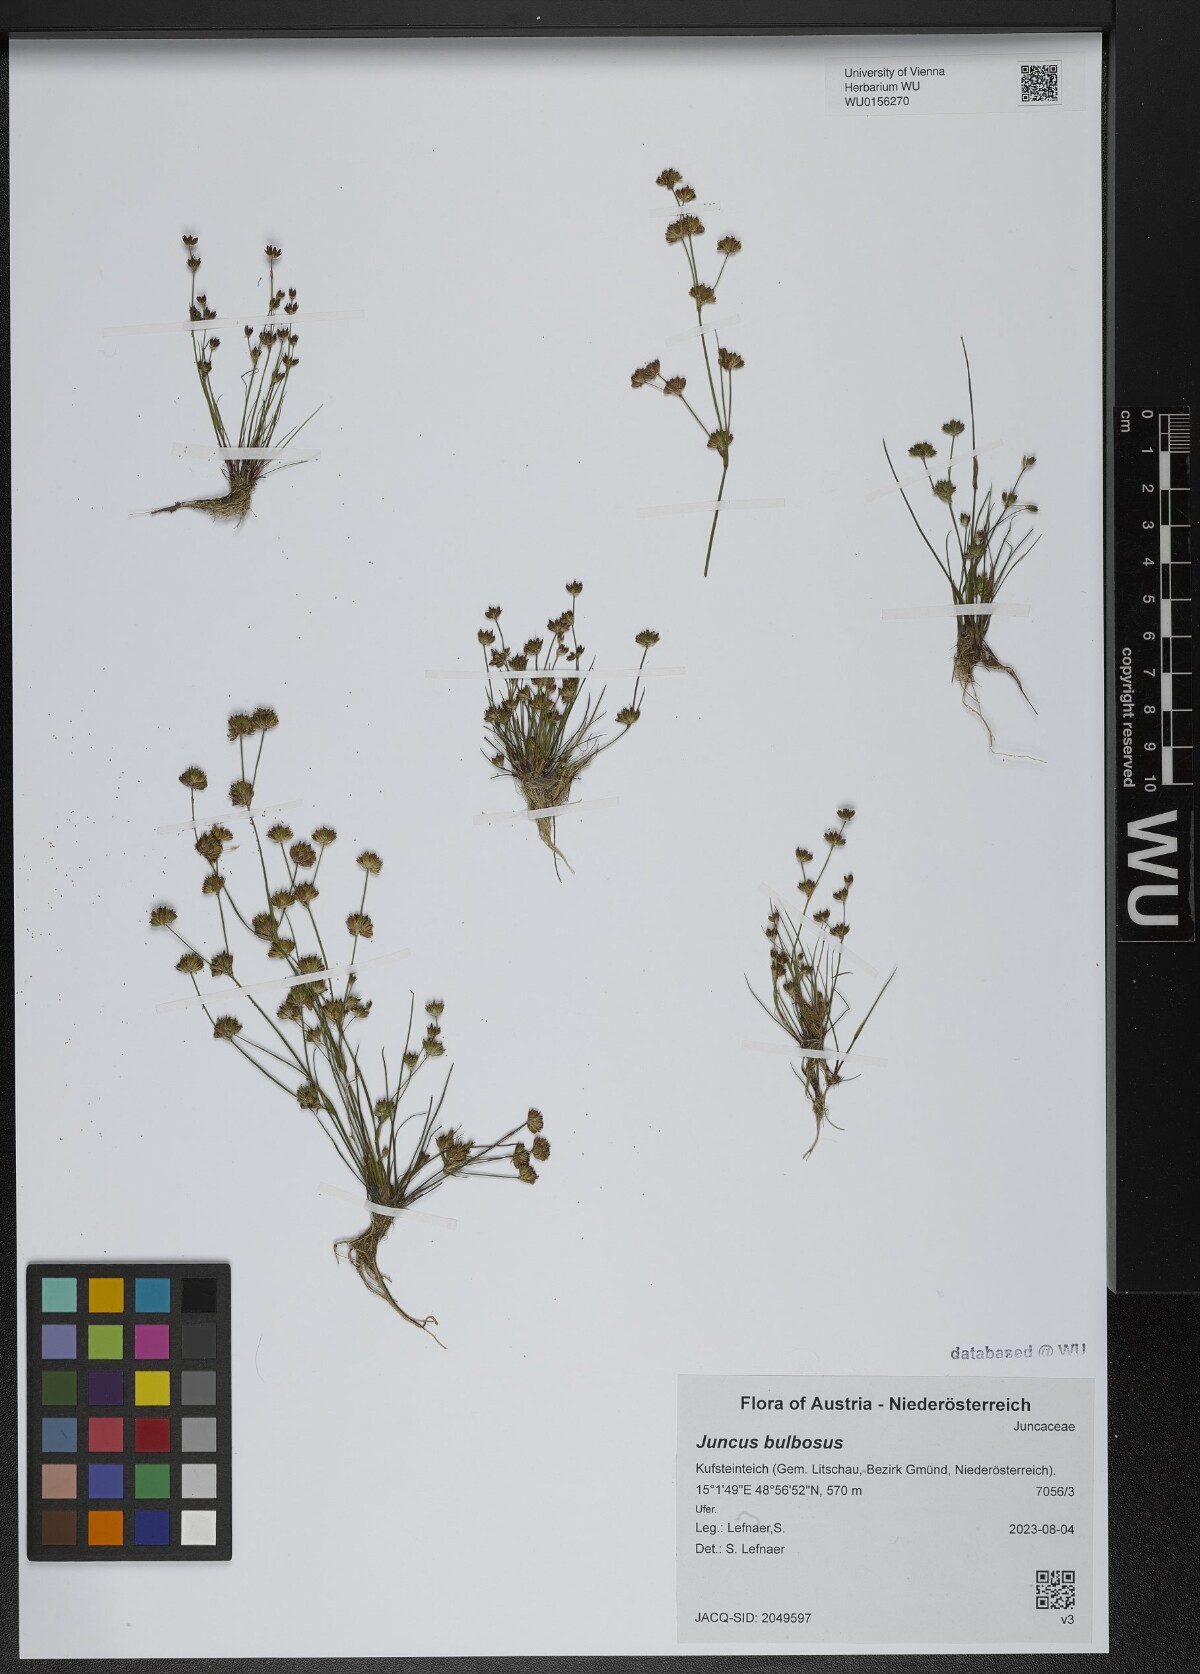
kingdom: Plantae
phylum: Tracheophyta
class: Liliopsida
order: Poales
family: Juncaceae
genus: Juncus
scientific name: Juncus bulbosus
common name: Bulbous rush
